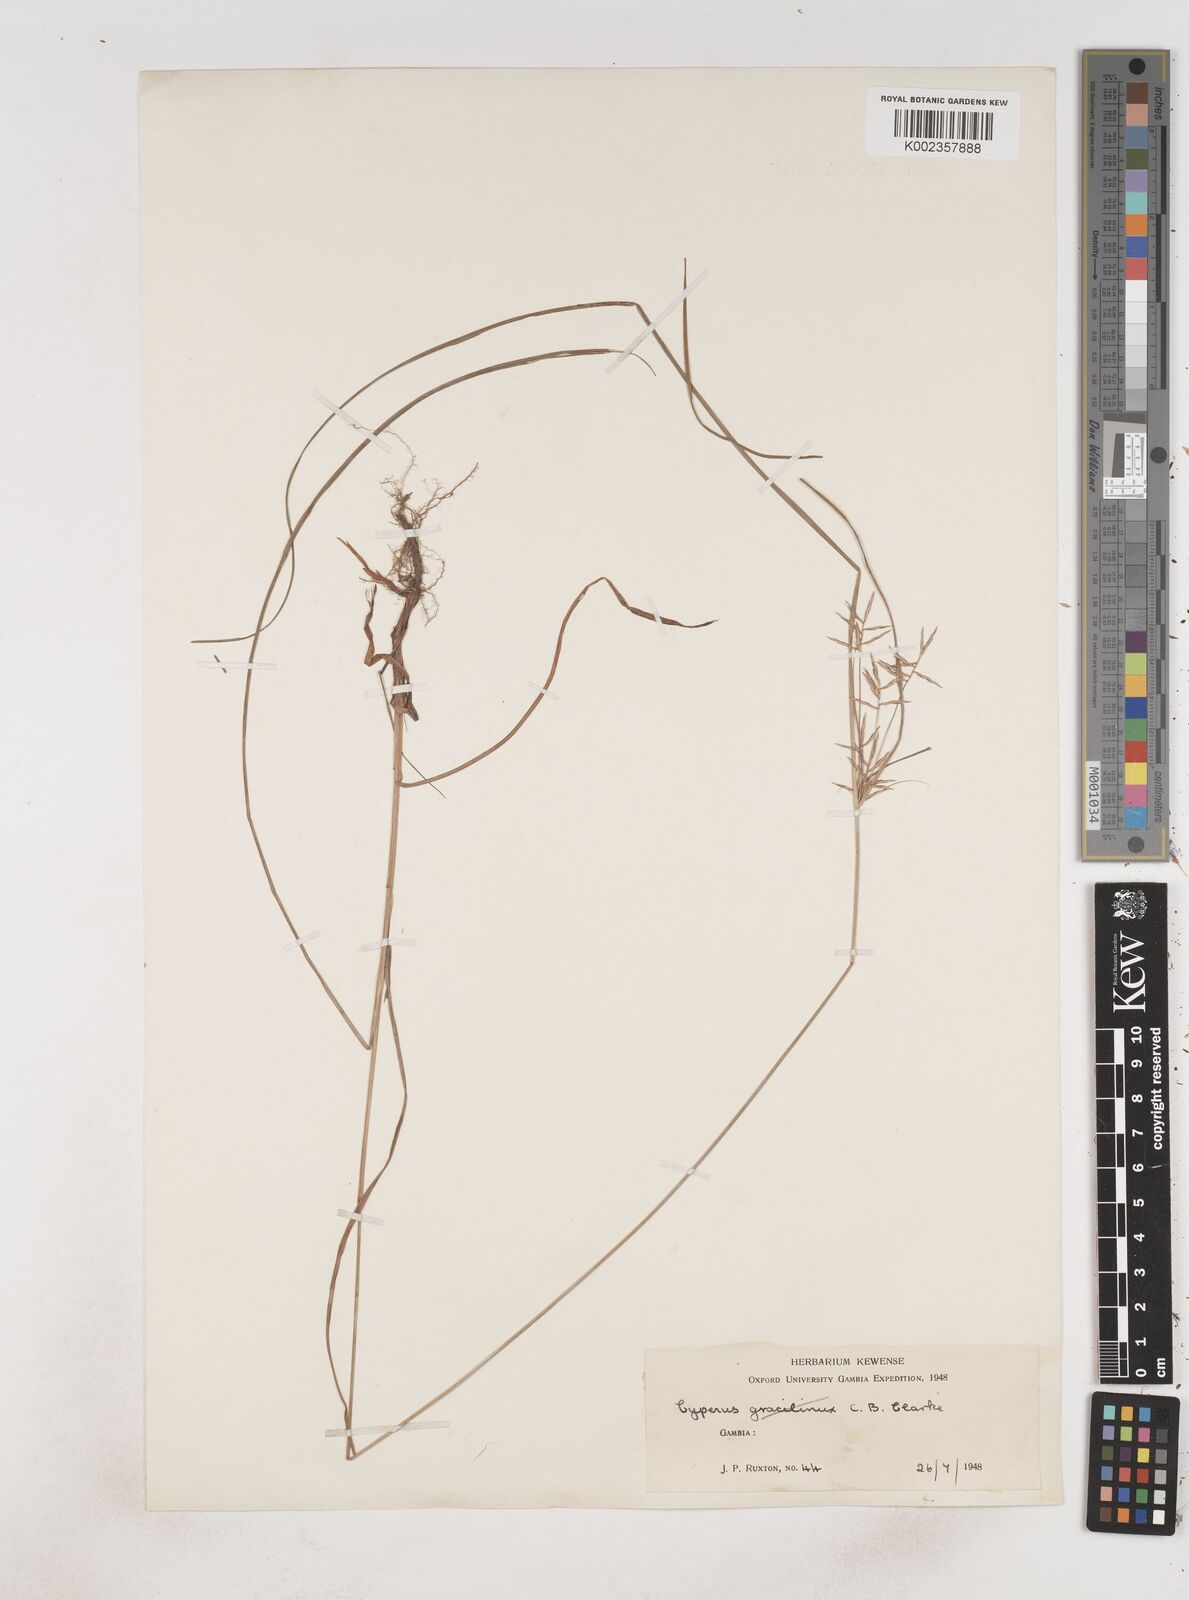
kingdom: Plantae
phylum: Tracheophyta
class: Liliopsida
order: Poales
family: Cyperaceae
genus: Cyperus
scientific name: Cyperus
